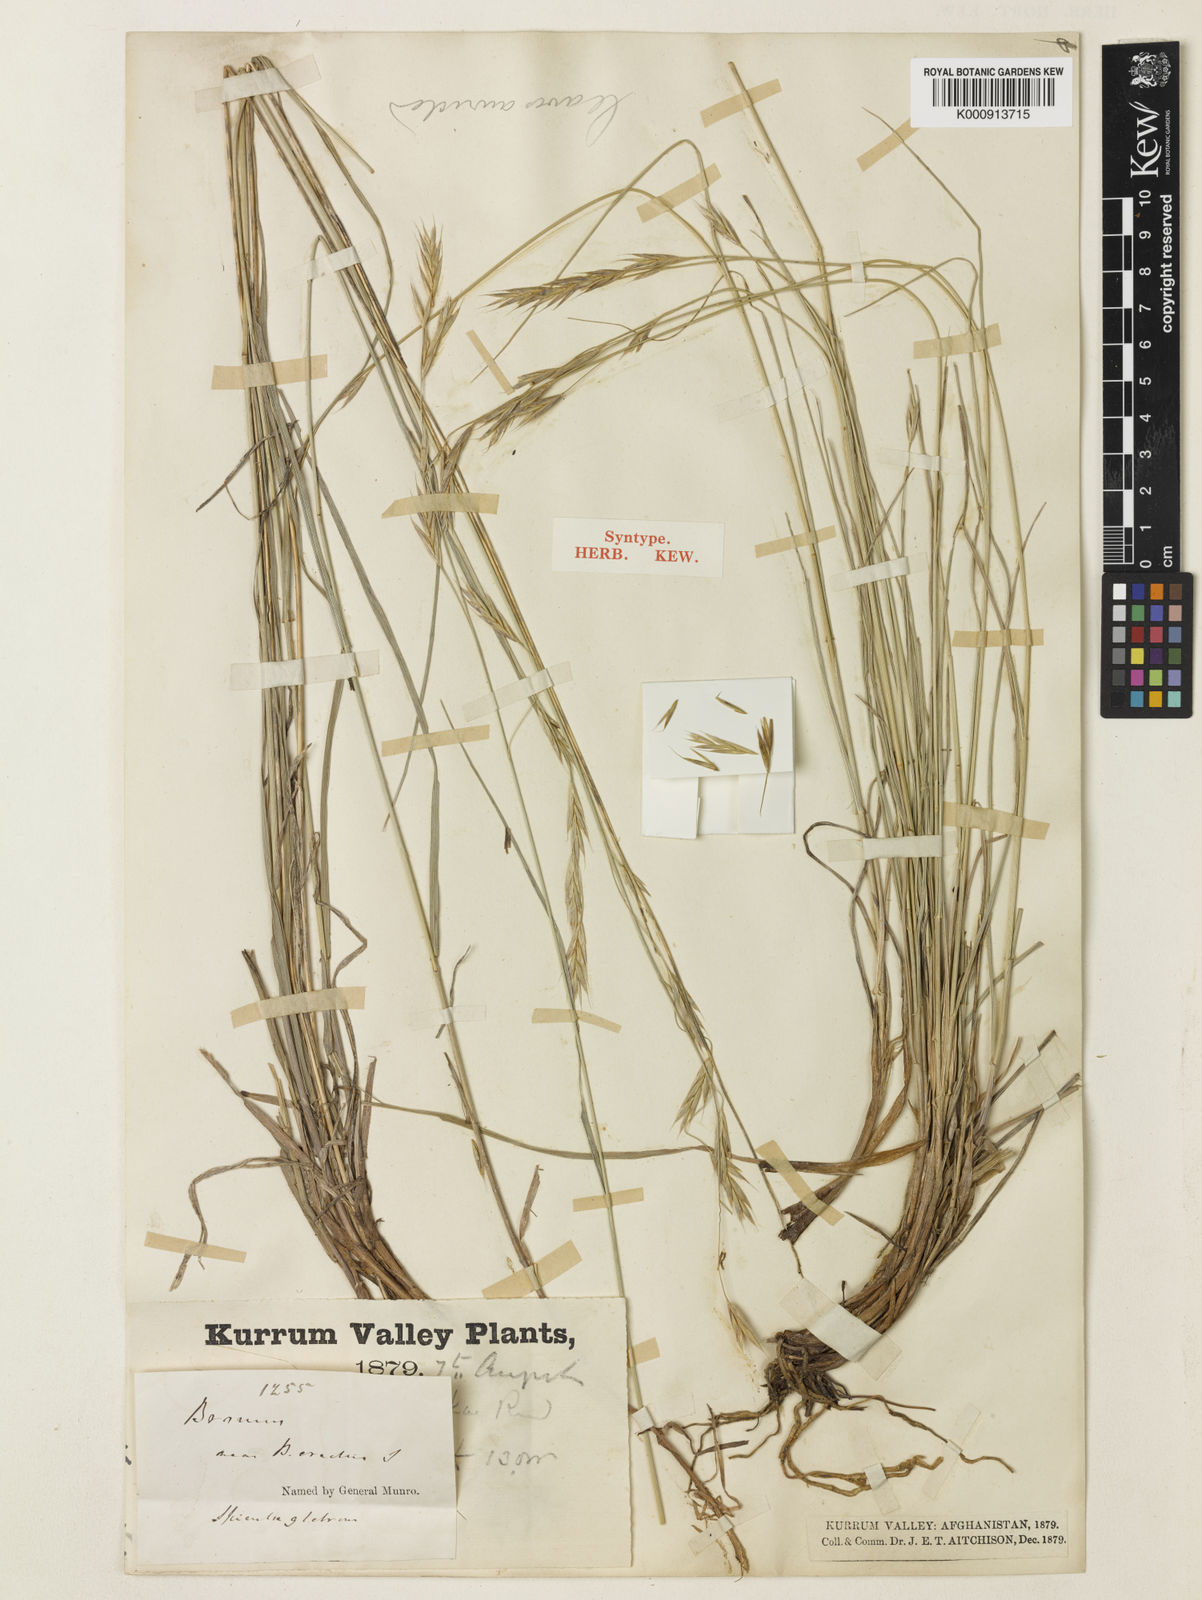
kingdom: Plantae
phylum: Tracheophyta
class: Liliopsida
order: Poales
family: Poaceae
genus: Bromus
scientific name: Bromus stenostachyus
